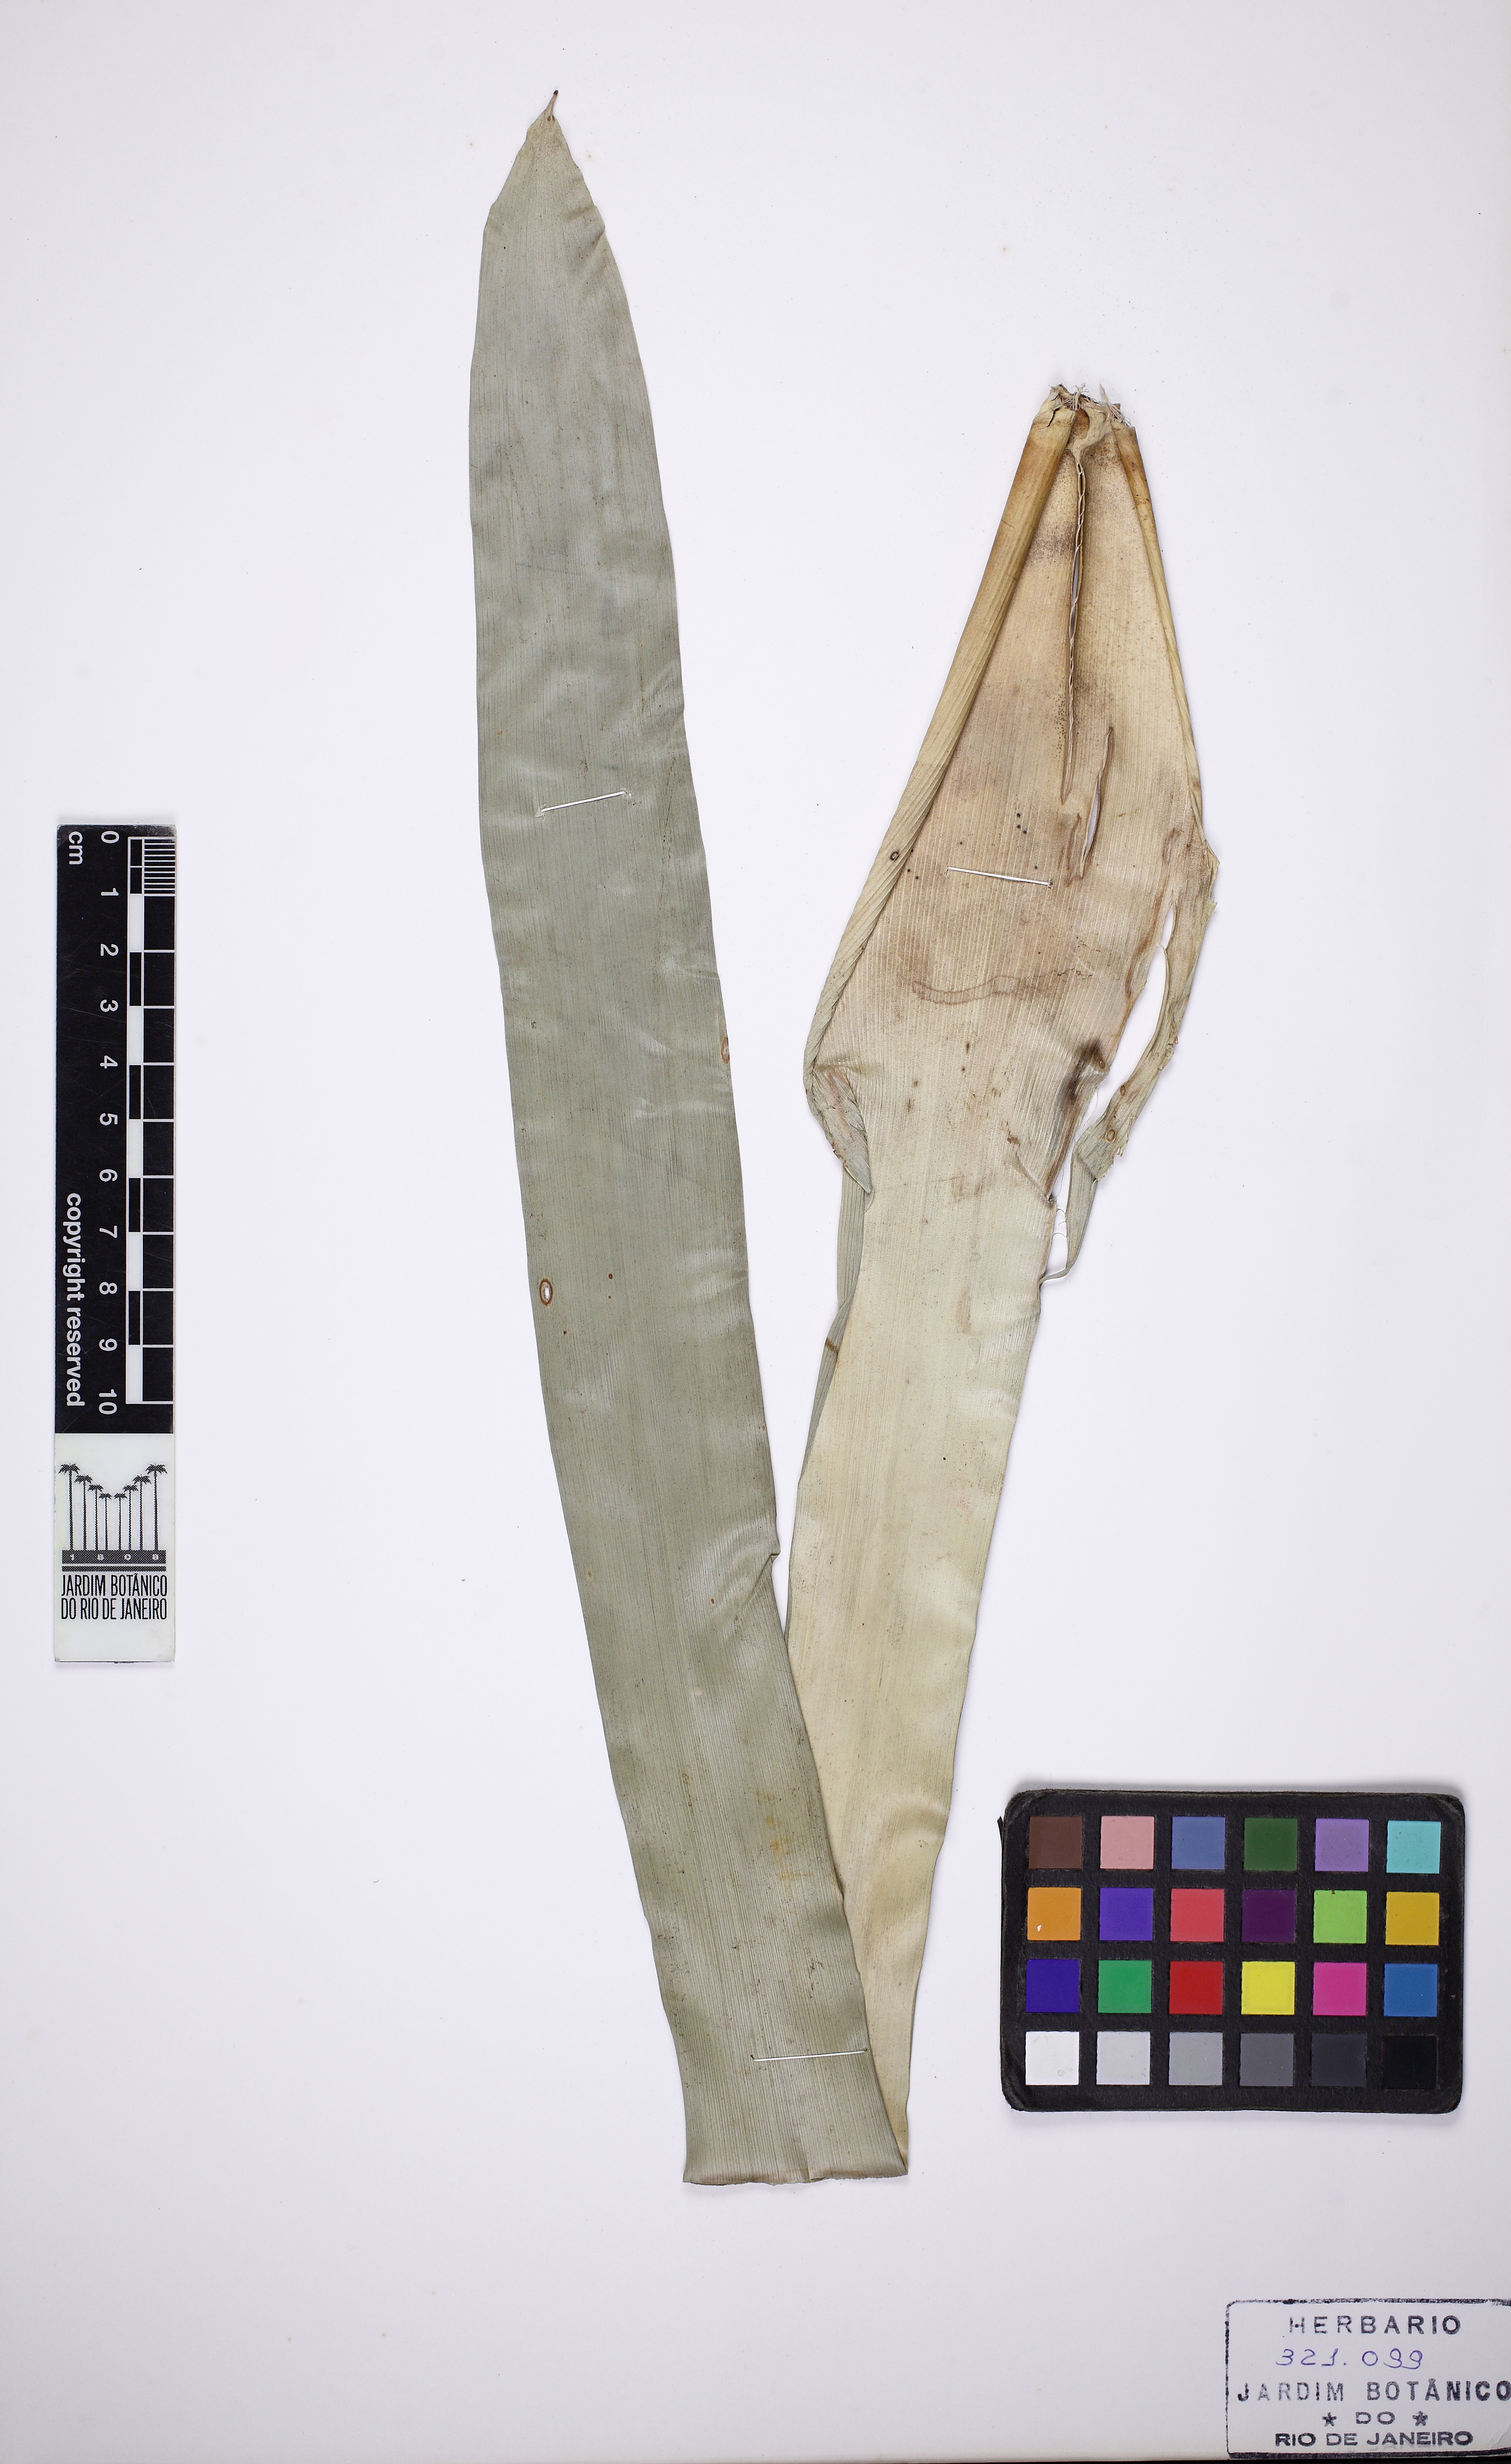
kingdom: Plantae
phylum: Tracheophyta
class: Liliopsida
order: Poales
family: Bromeliaceae
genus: Vriesea
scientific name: Vriesea ensiformis
